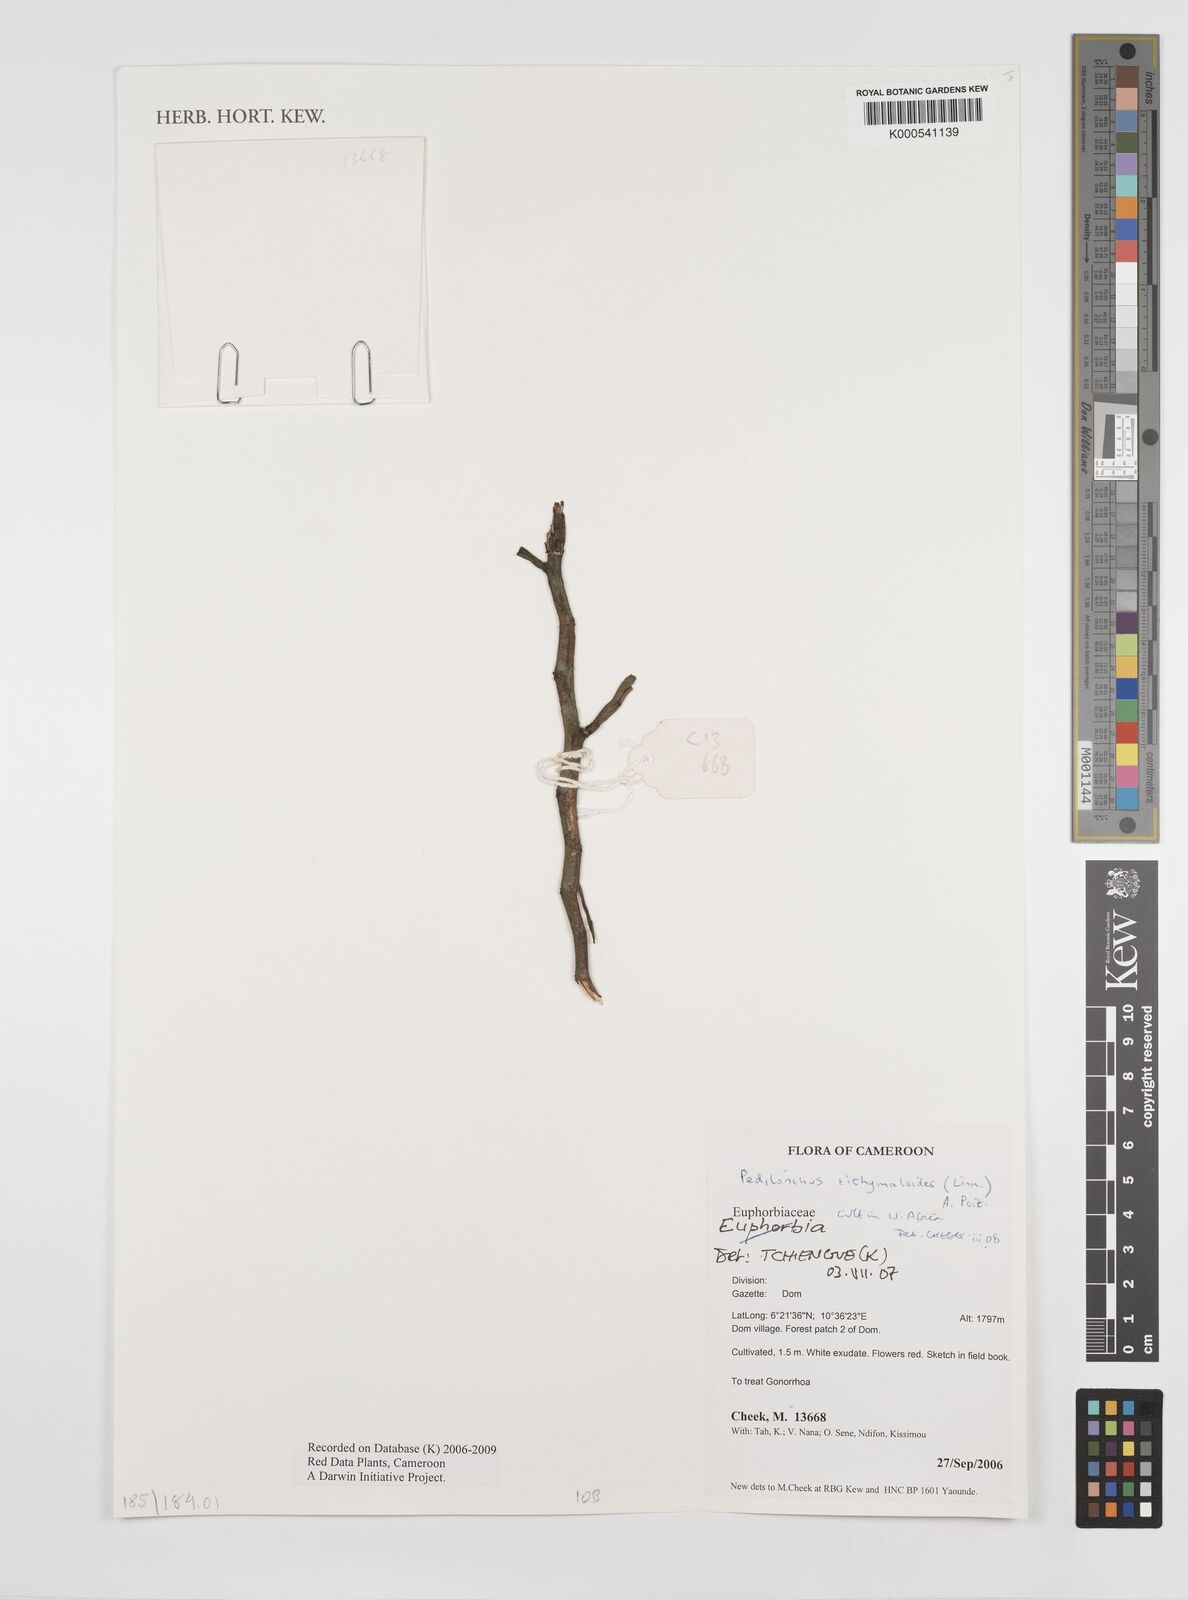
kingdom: Plantae
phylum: Tracheophyta
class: Magnoliopsida
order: Malpighiales
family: Euphorbiaceae
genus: Euphorbia
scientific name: Euphorbia tithymaloides
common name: Slipperplant
